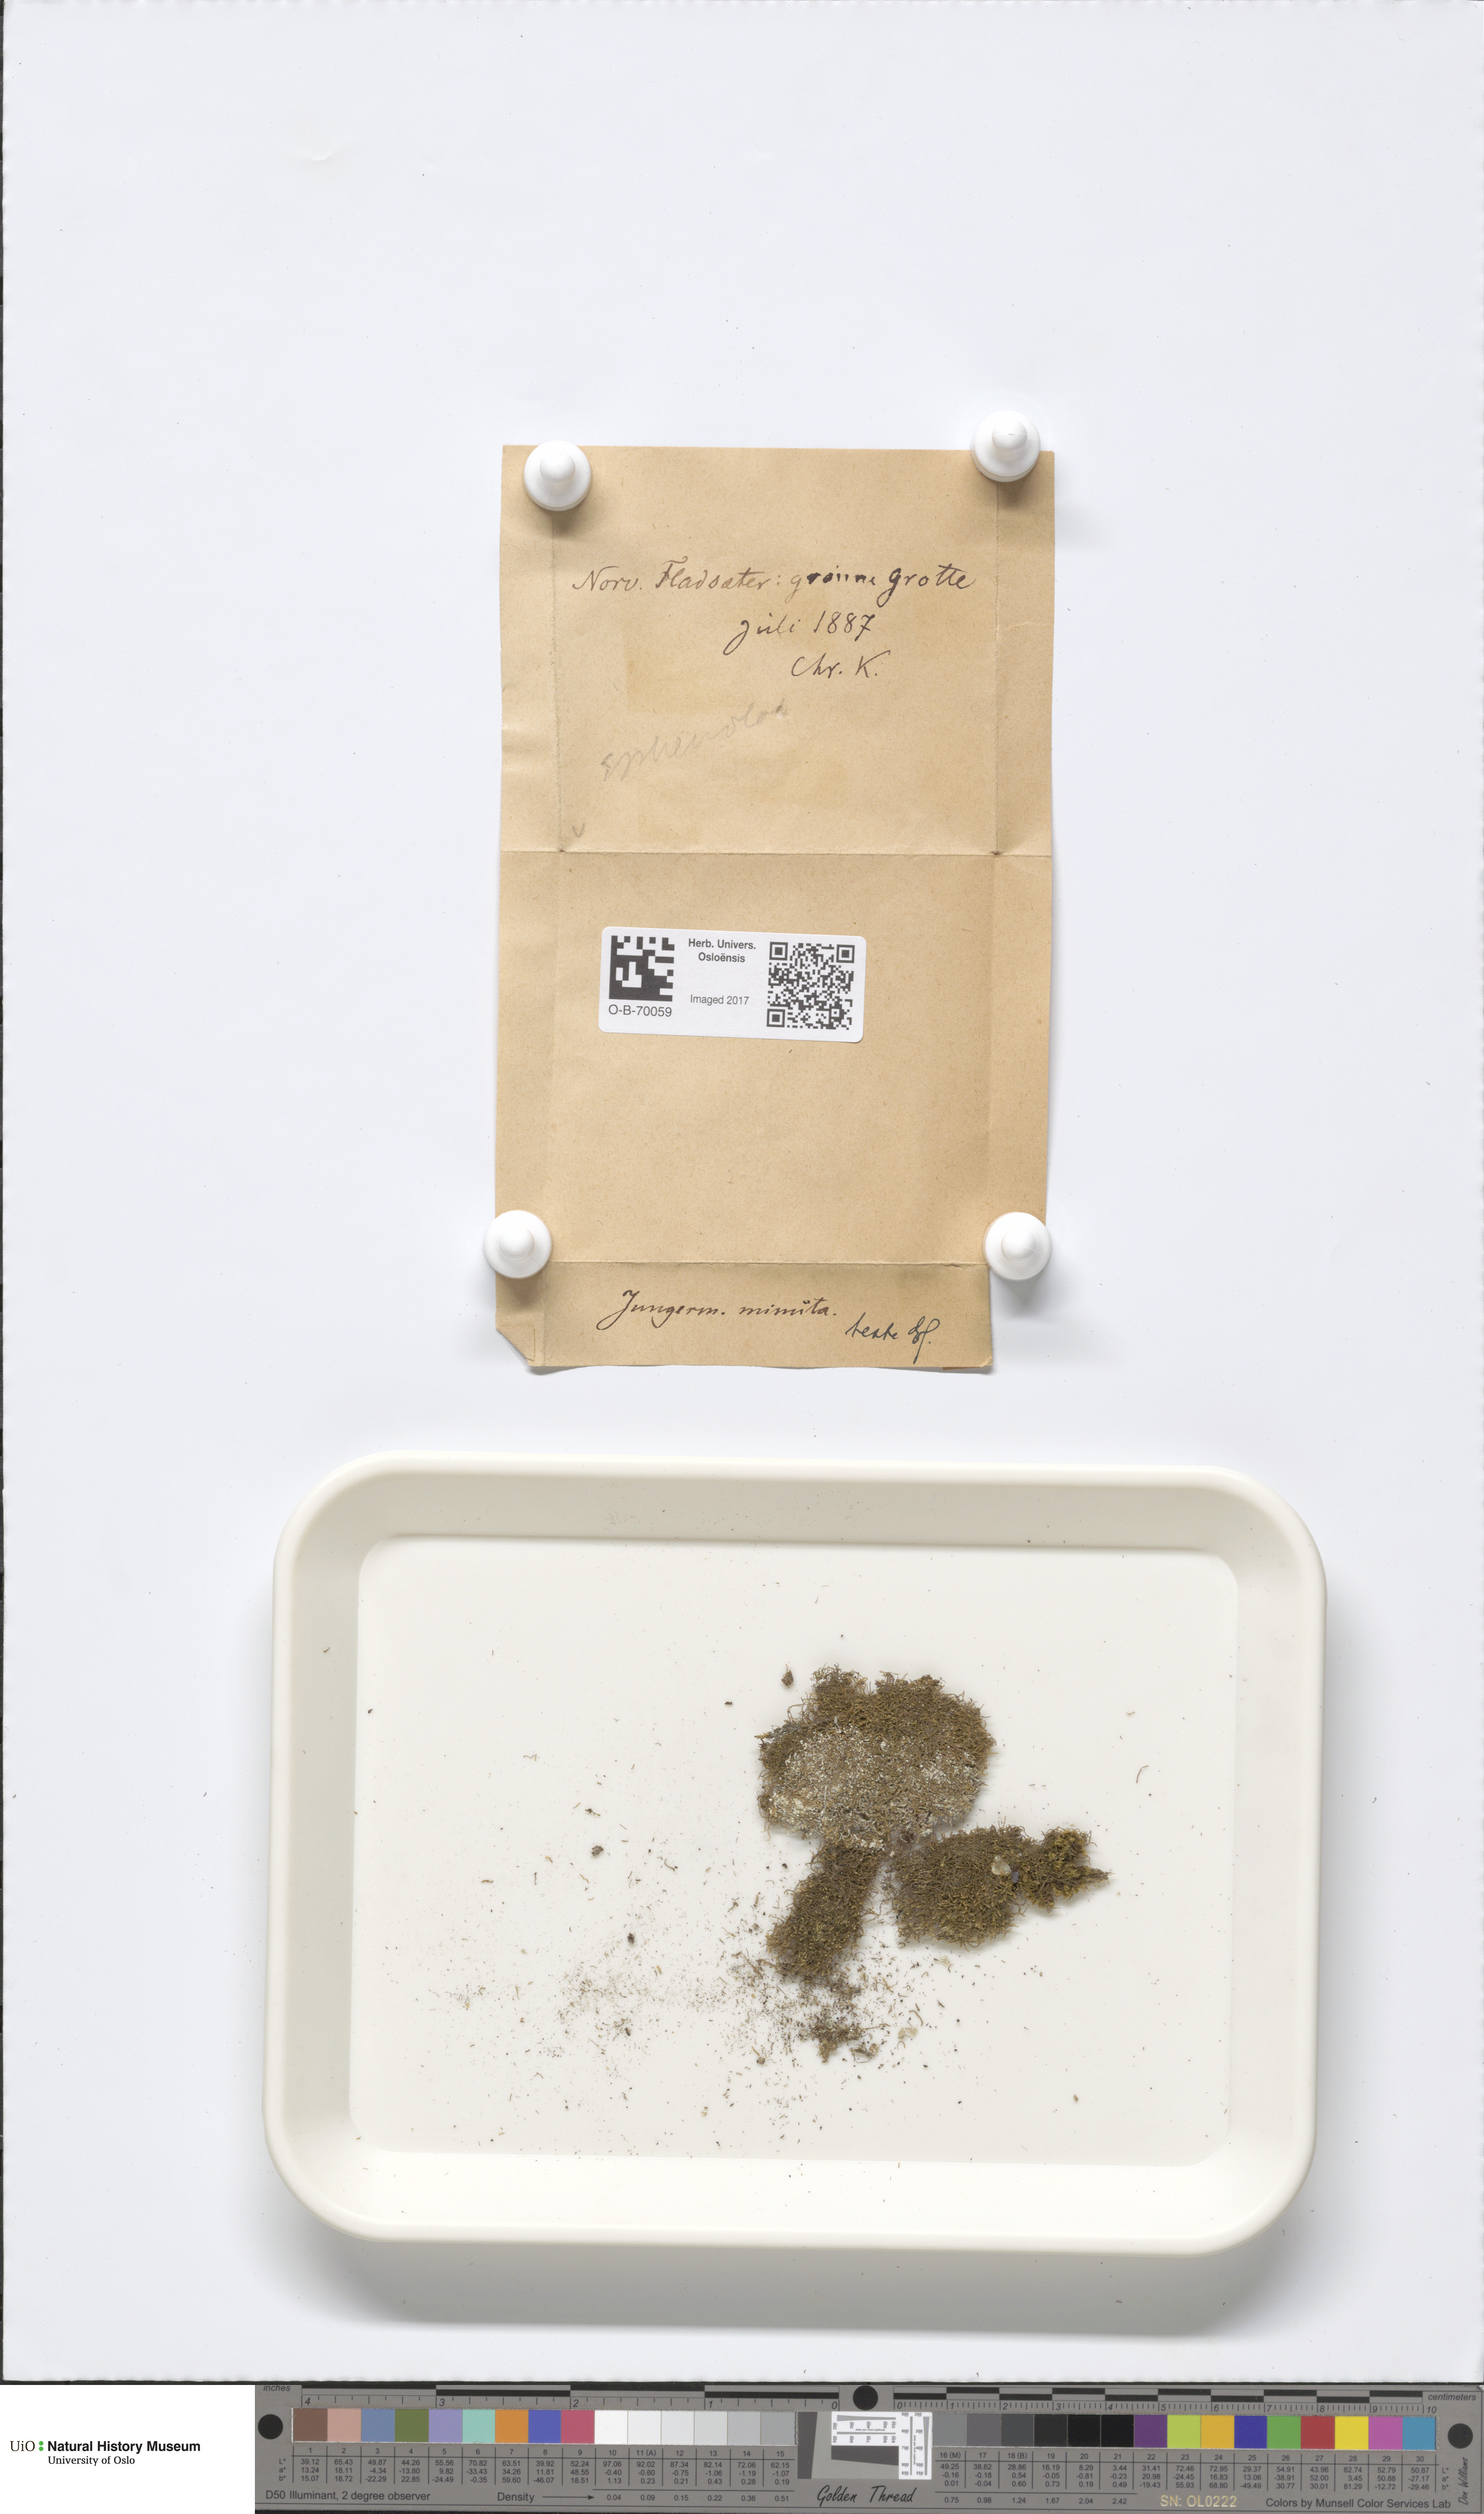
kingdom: Plantae
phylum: Marchantiophyta
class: Jungermanniopsida
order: Jungermanniales
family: Anastrophyllaceae
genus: Sphenolobus
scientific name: Sphenolobus minutus
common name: Comb notchwort
